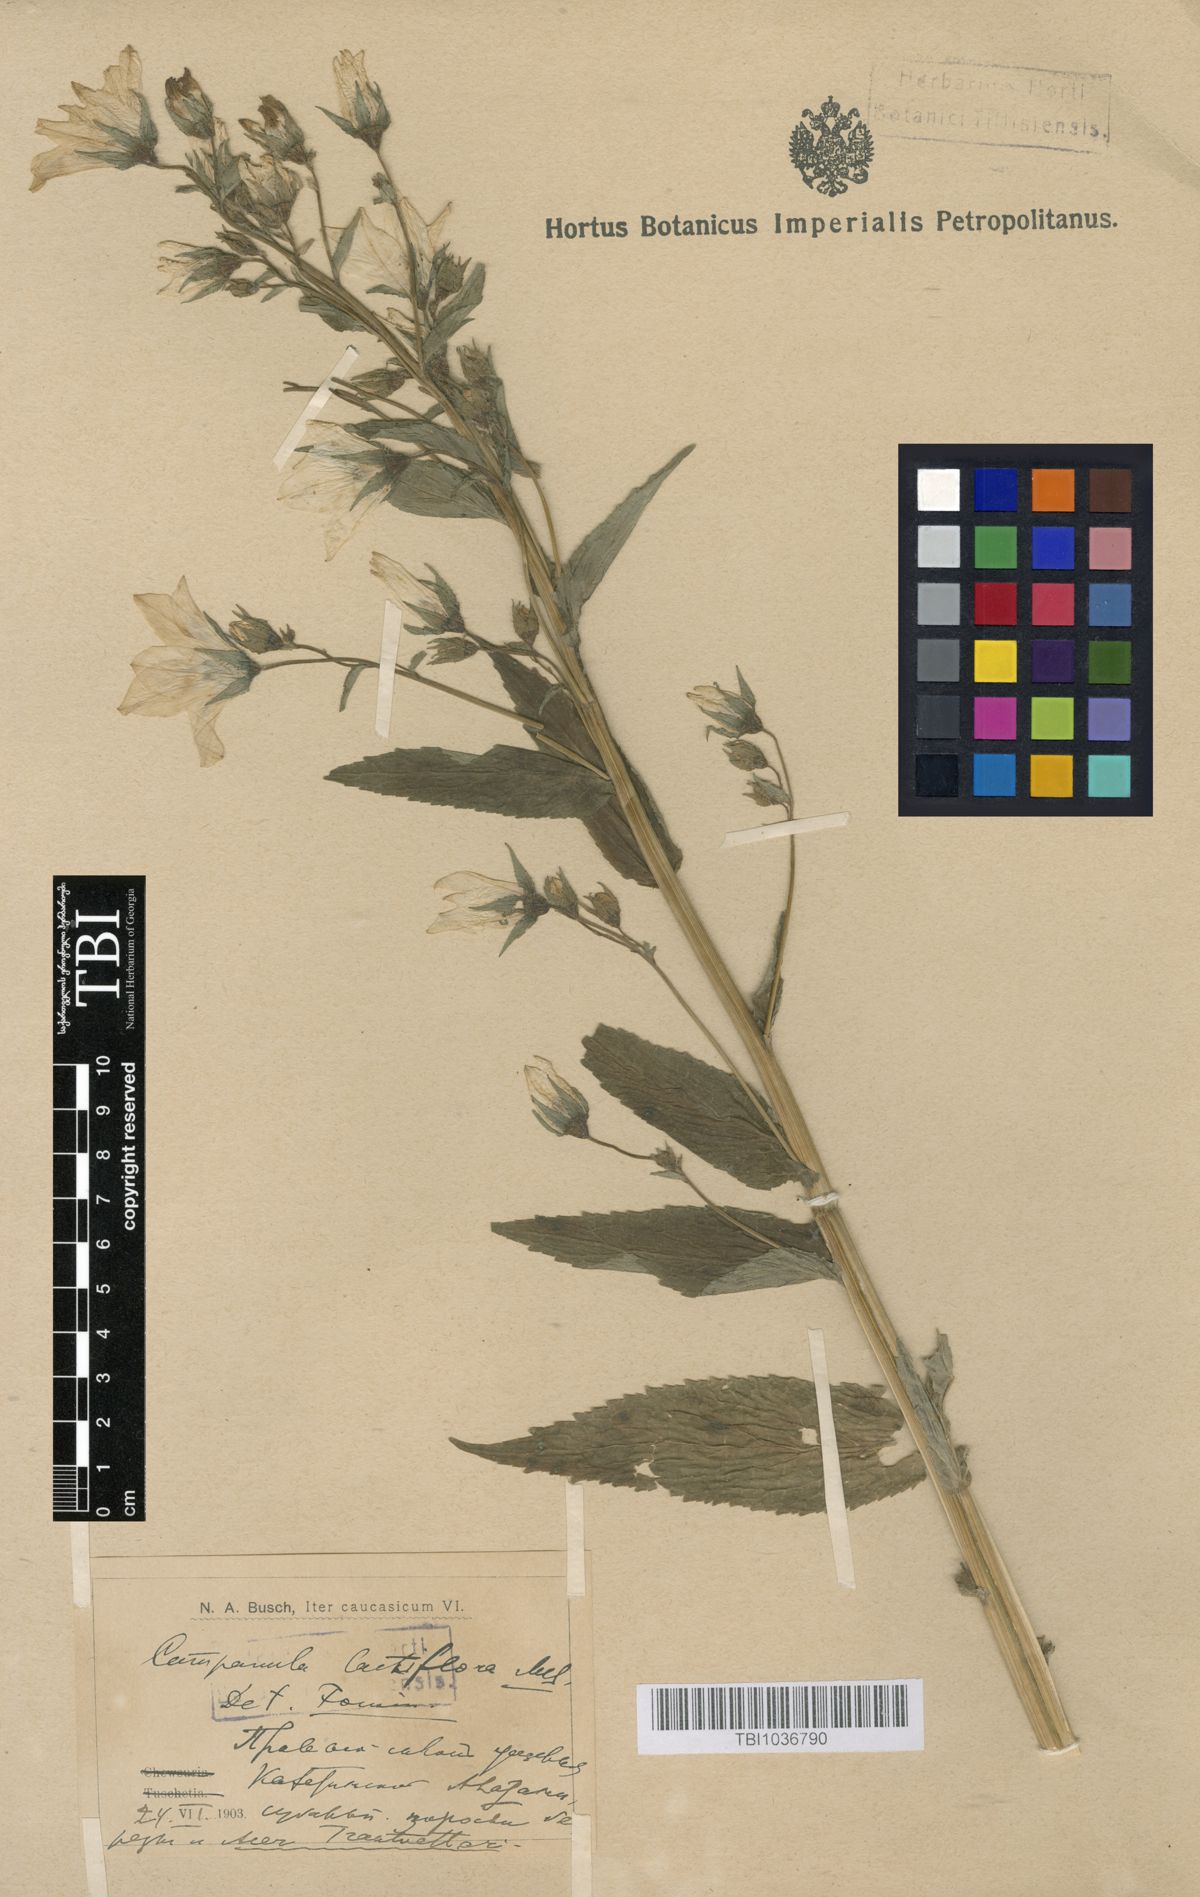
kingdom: Plantae
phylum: Tracheophyta
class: Magnoliopsida
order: Asterales
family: Campanulaceae
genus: Campanula
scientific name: Campanula lactiflora
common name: Milky bellflower
